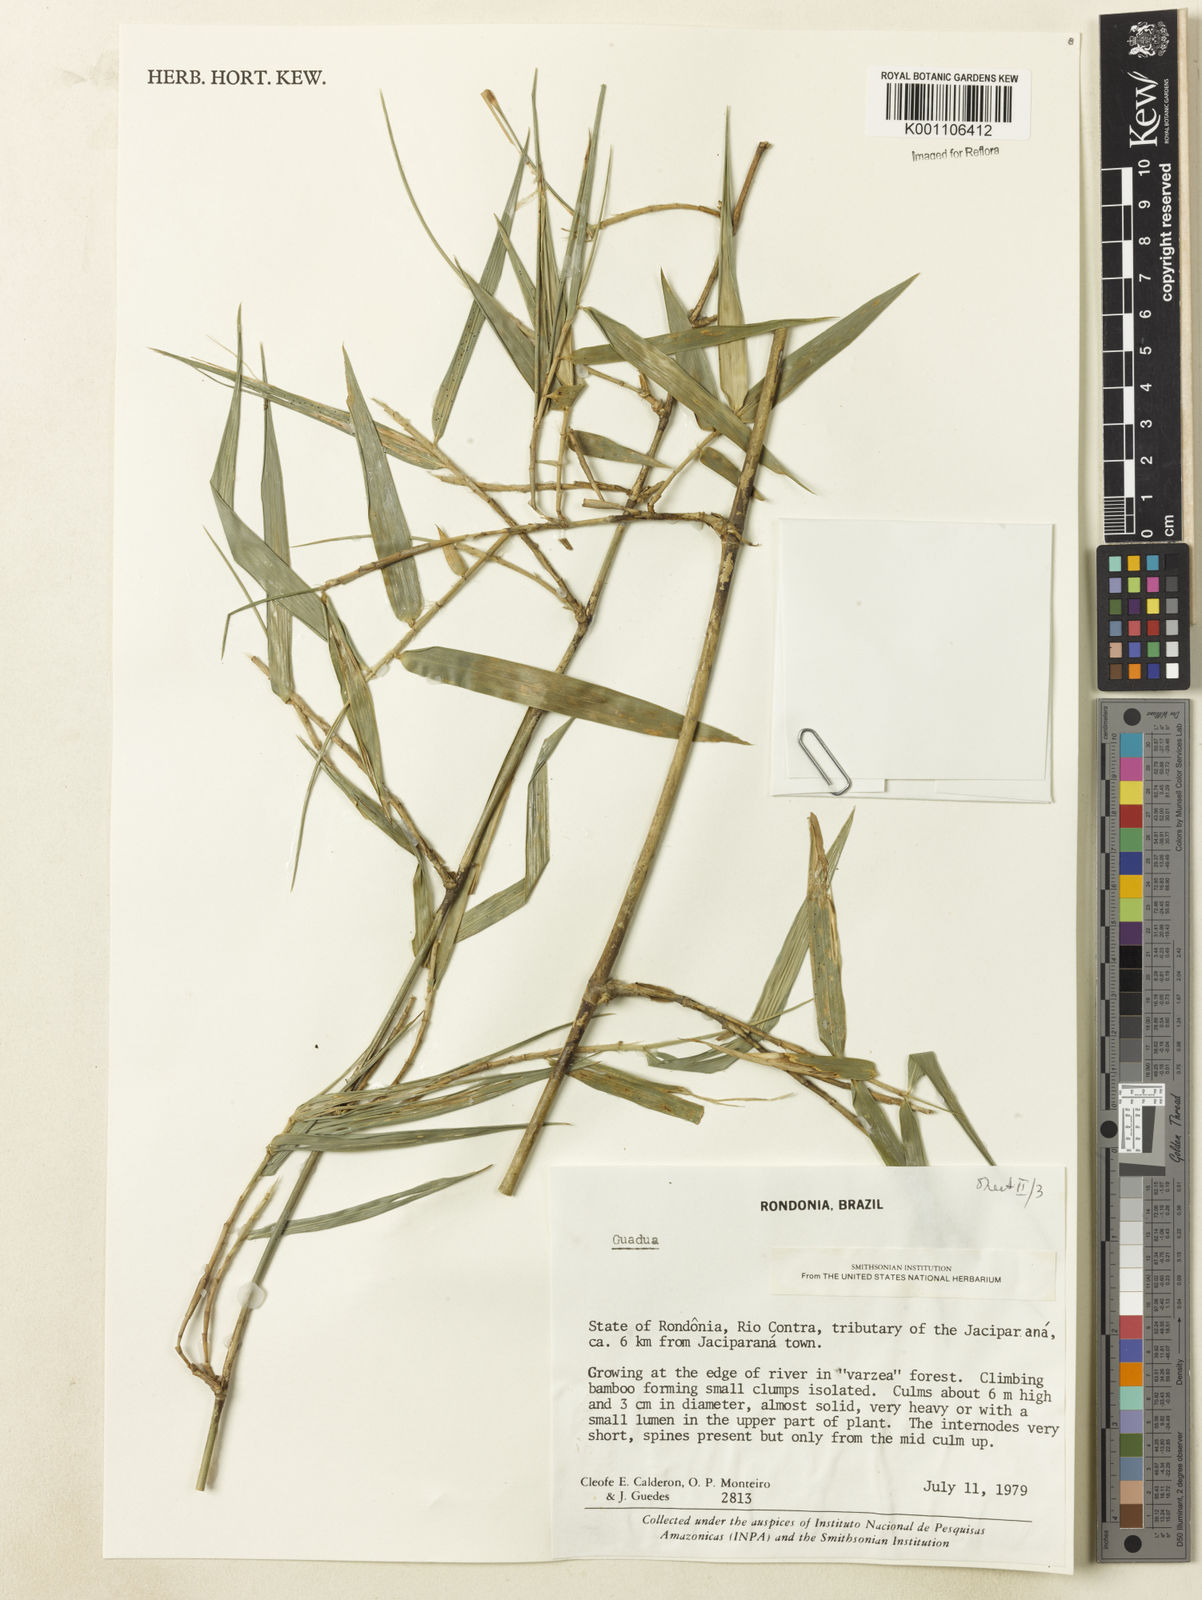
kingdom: Plantae
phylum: Tracheophyta
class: Liliopsida
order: Poales
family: Poaceae
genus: Guadua
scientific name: Guadua
